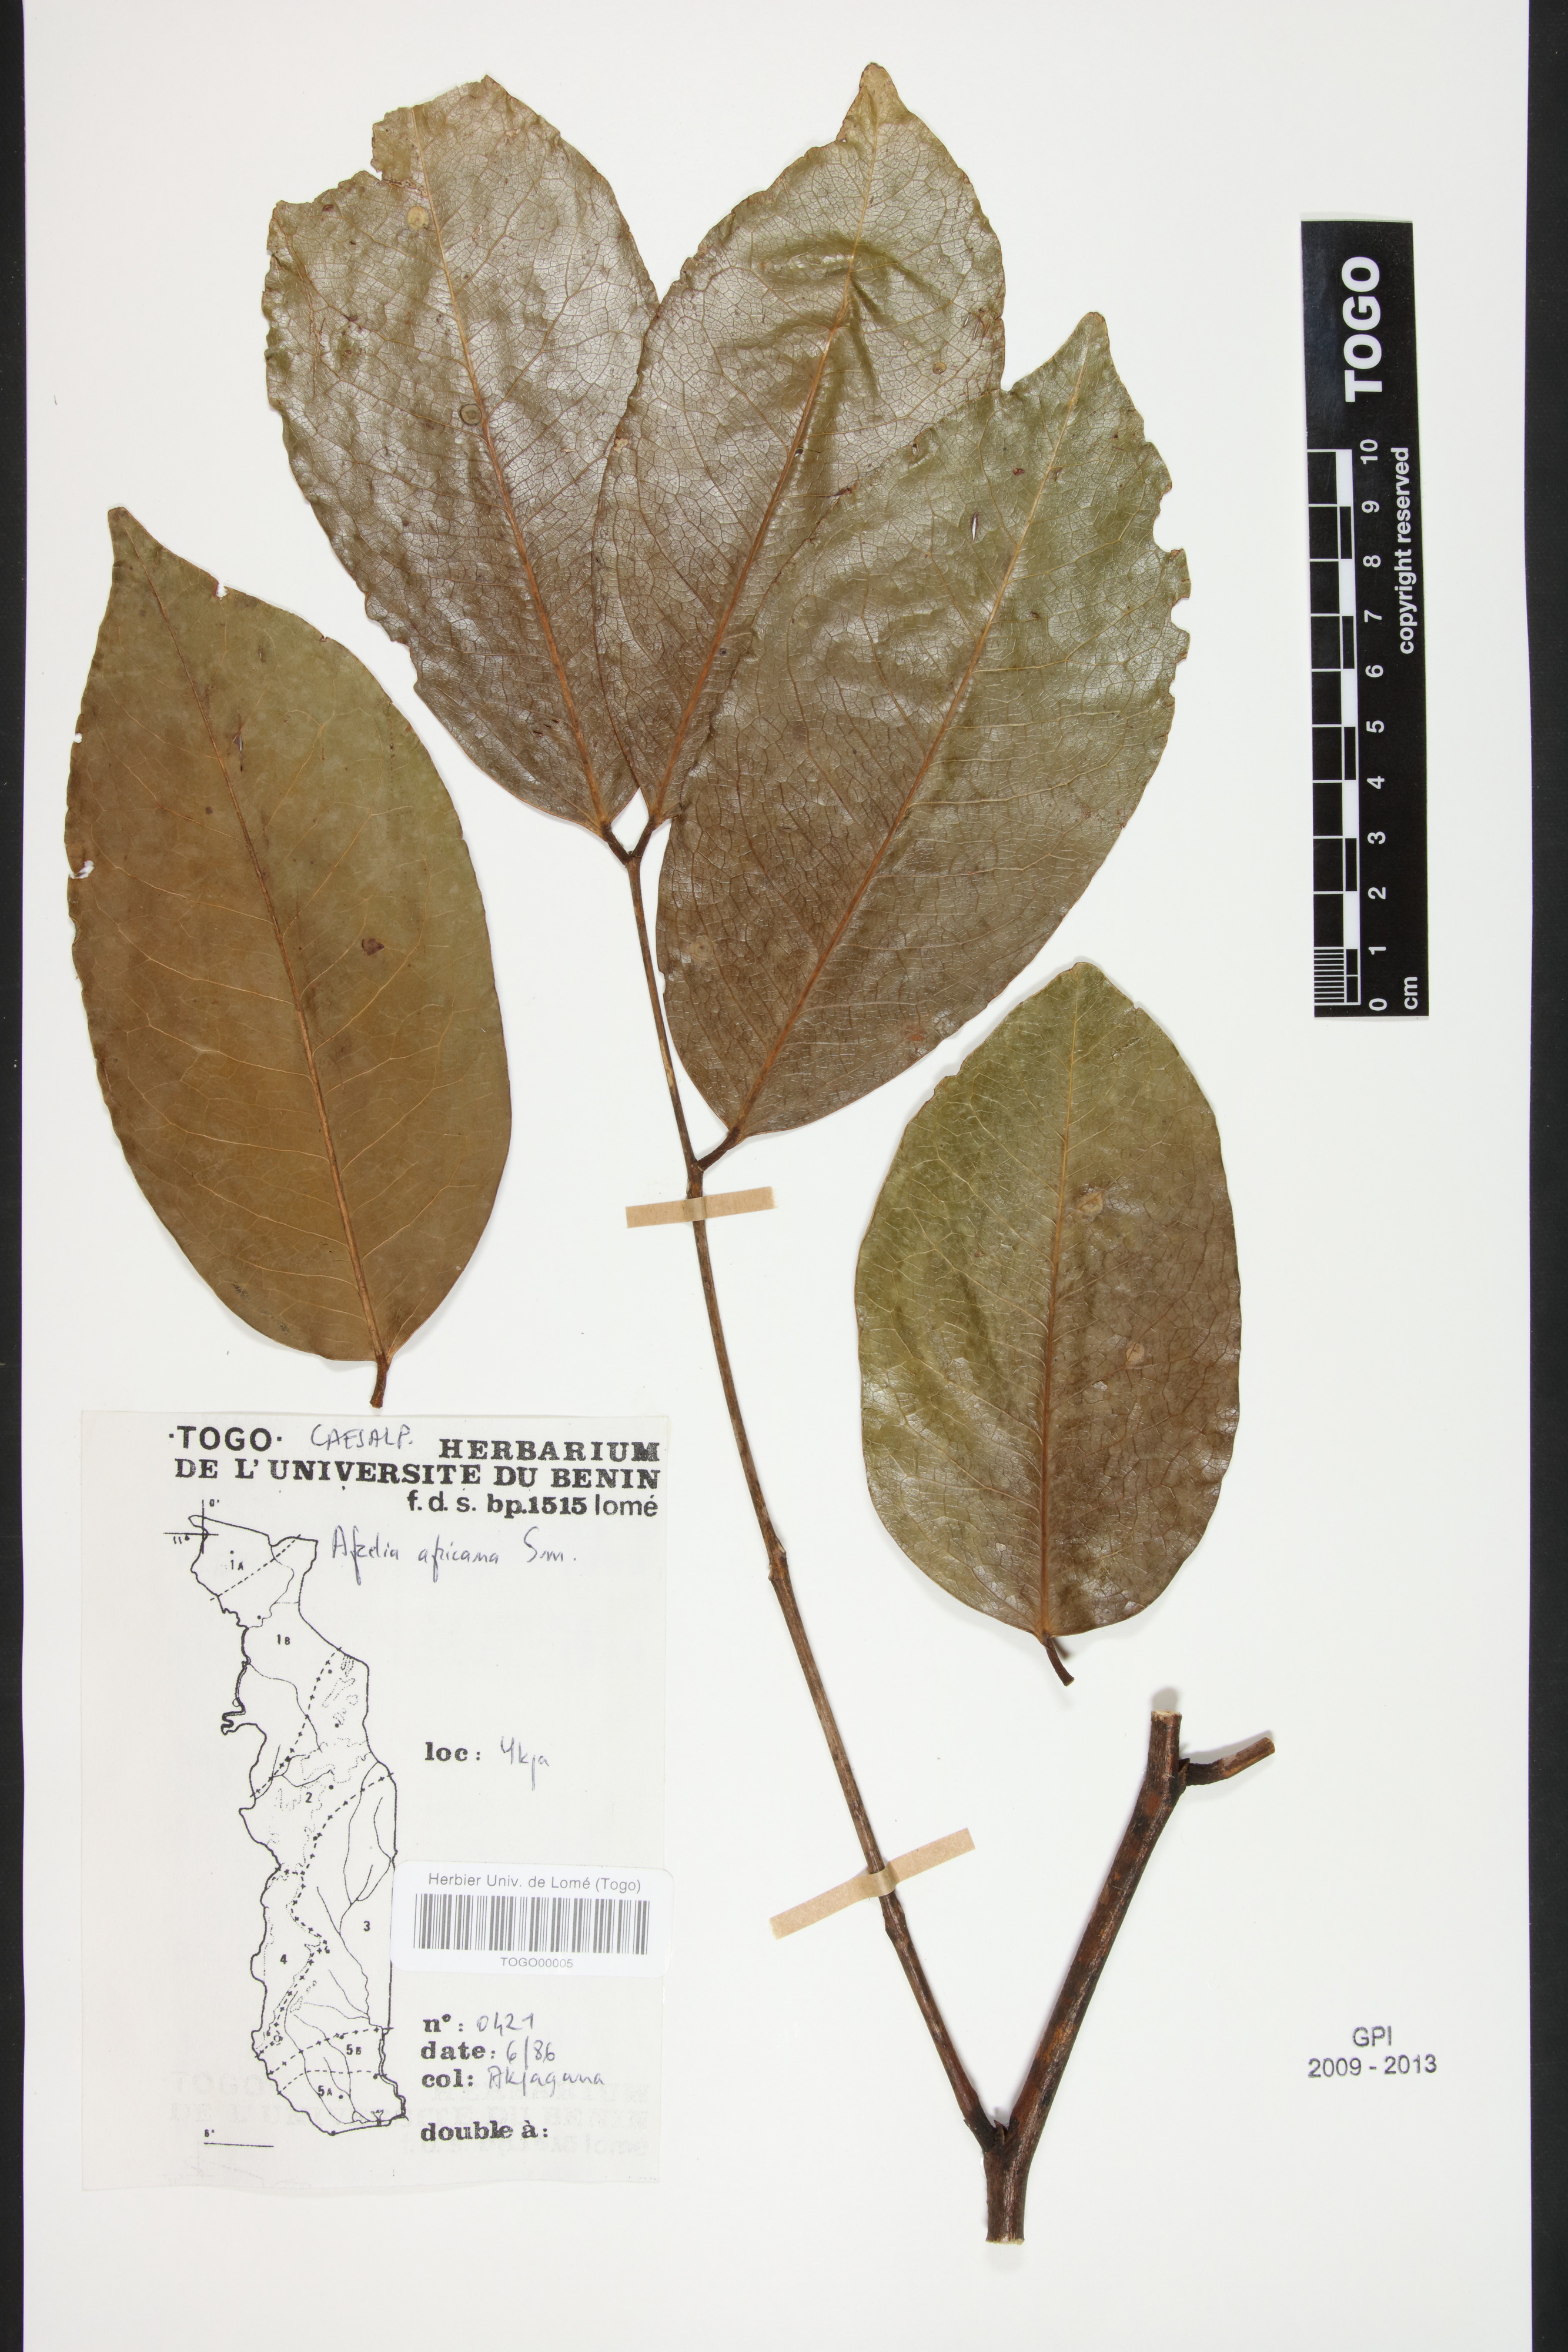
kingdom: Plantae
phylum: Tracheophyta
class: Magnoliopsida
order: Fabales
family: Fabaceae
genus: Afzelia
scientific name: Afzelia africana
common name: African-mahogany
